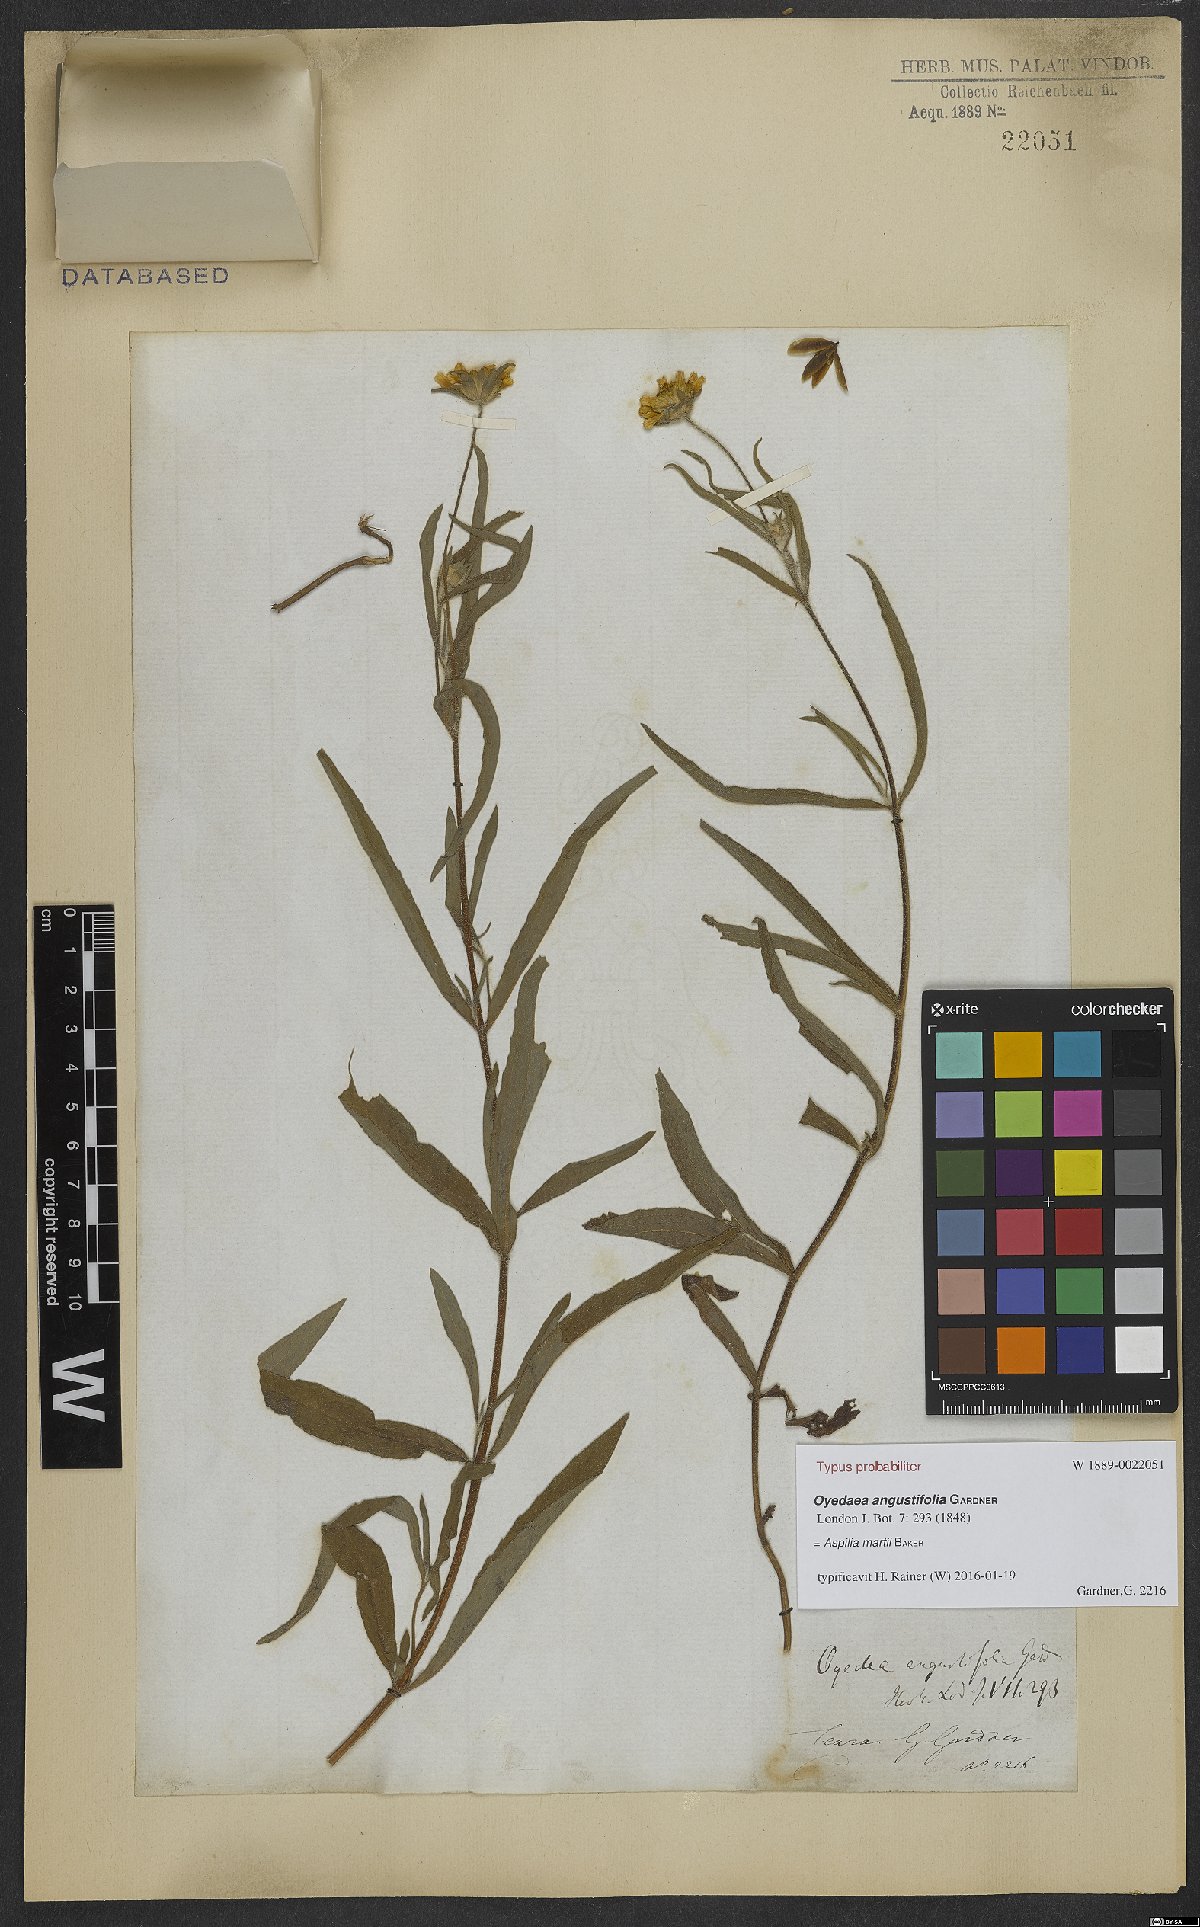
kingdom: Plantae
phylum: Tracheophyta
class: Magnoliopsida
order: Asterales
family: Asteraceae
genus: Wedelia
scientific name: Wedelia martii
